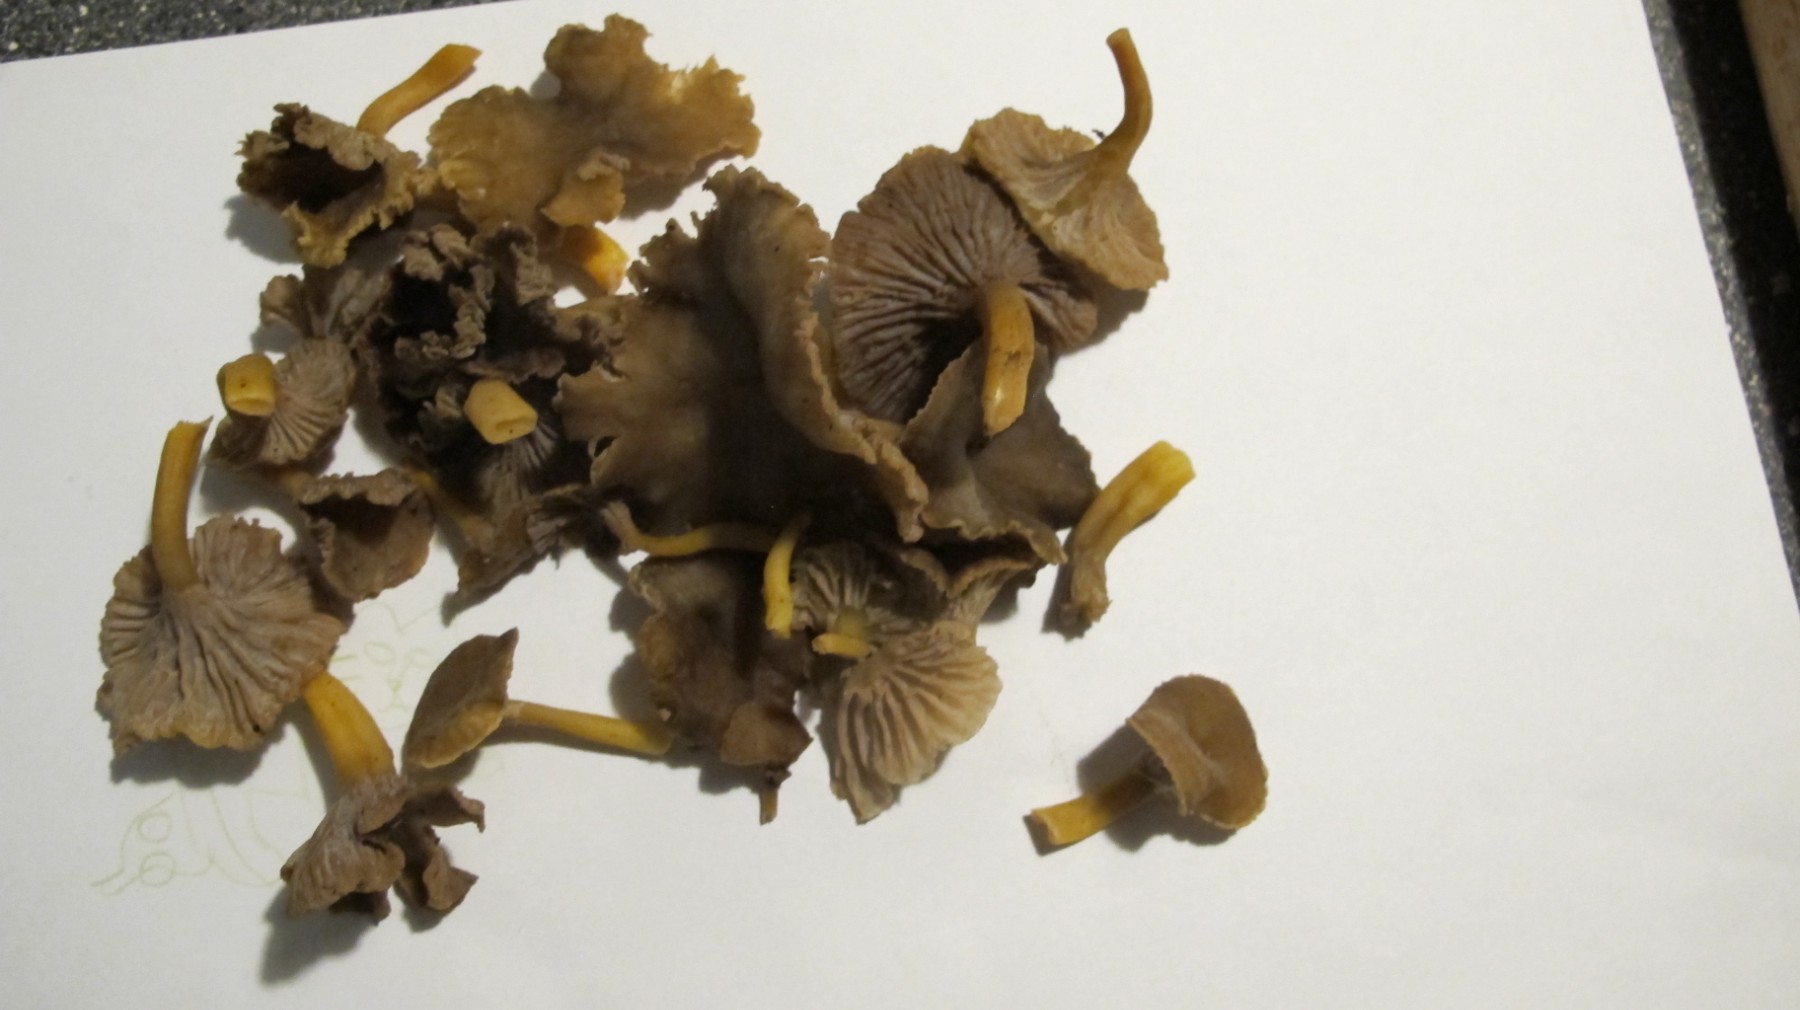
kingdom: Fungi
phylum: Basidiomycota
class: Agaricomycetes
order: Cantharellales
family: Hydnaceae
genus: Craterellus
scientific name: Craterellus tubaeformis
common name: tragt-kantarel
